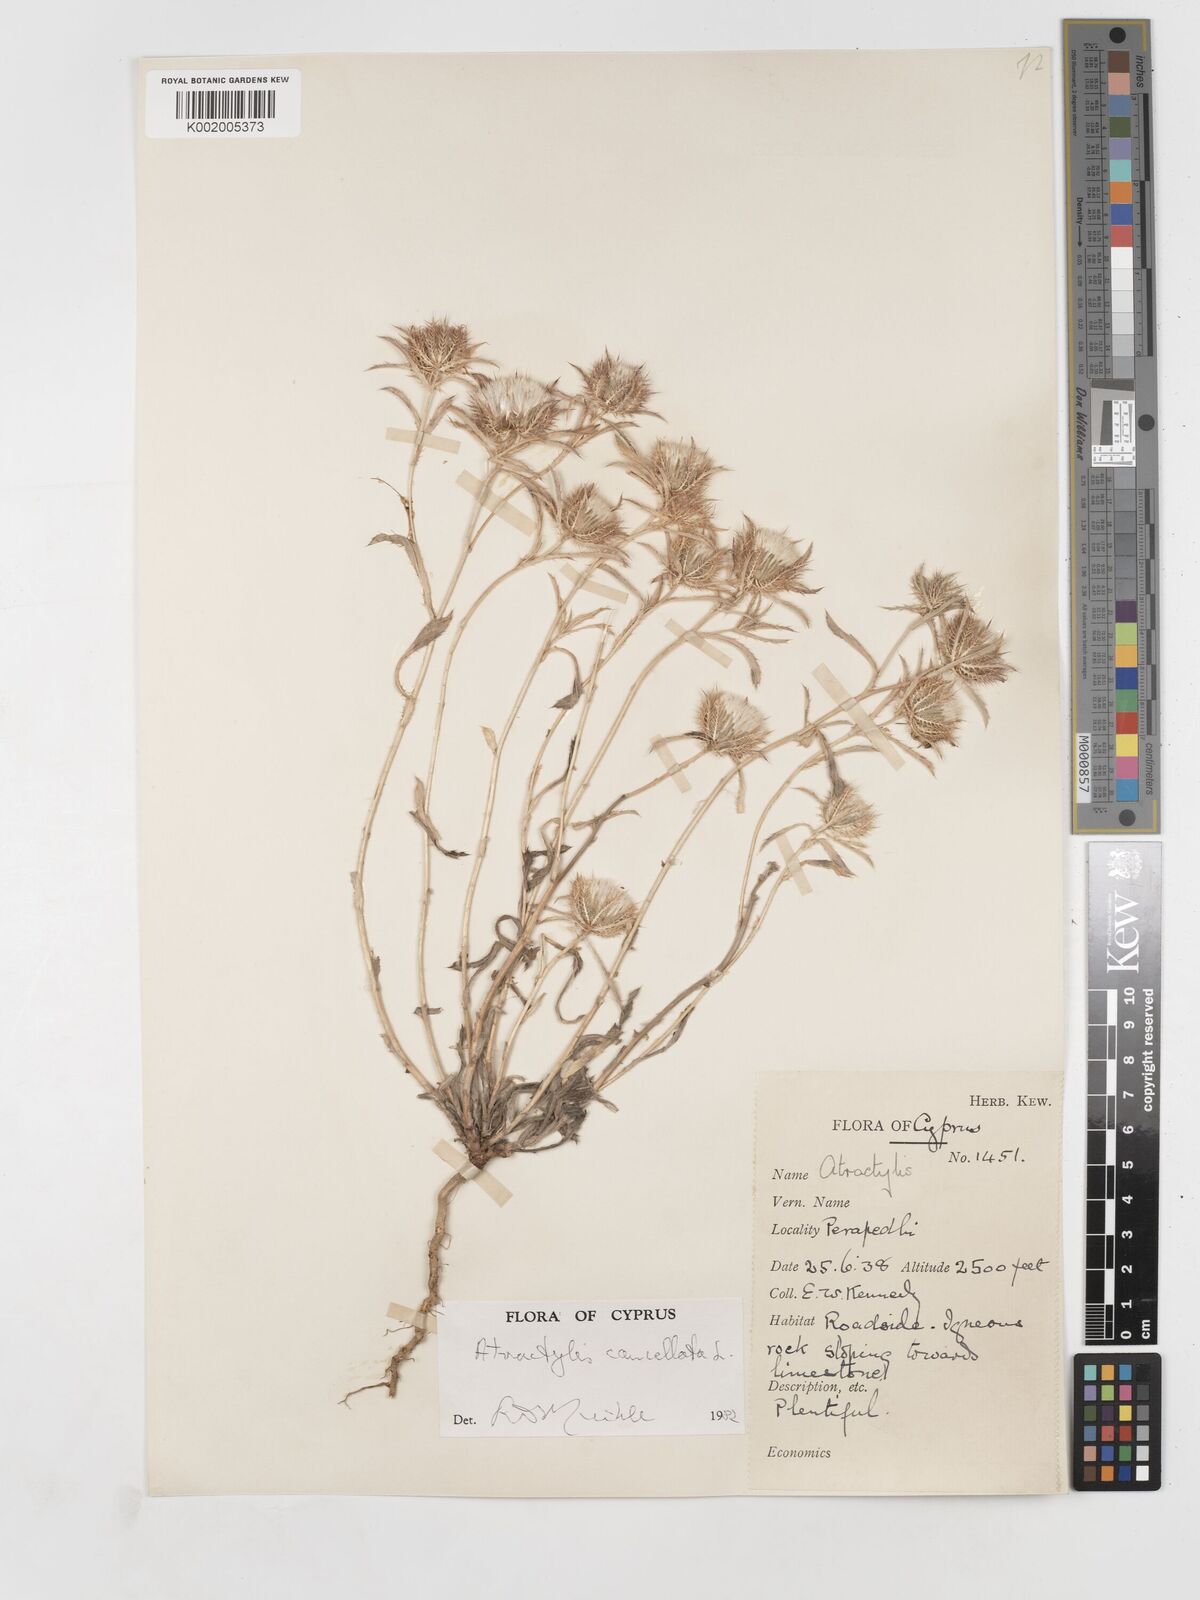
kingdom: Plantae
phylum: Tracheophyta
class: Magnoliopsida
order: Asterales
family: Asteraceae
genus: Atractylis
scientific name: Atractylis cancellata
